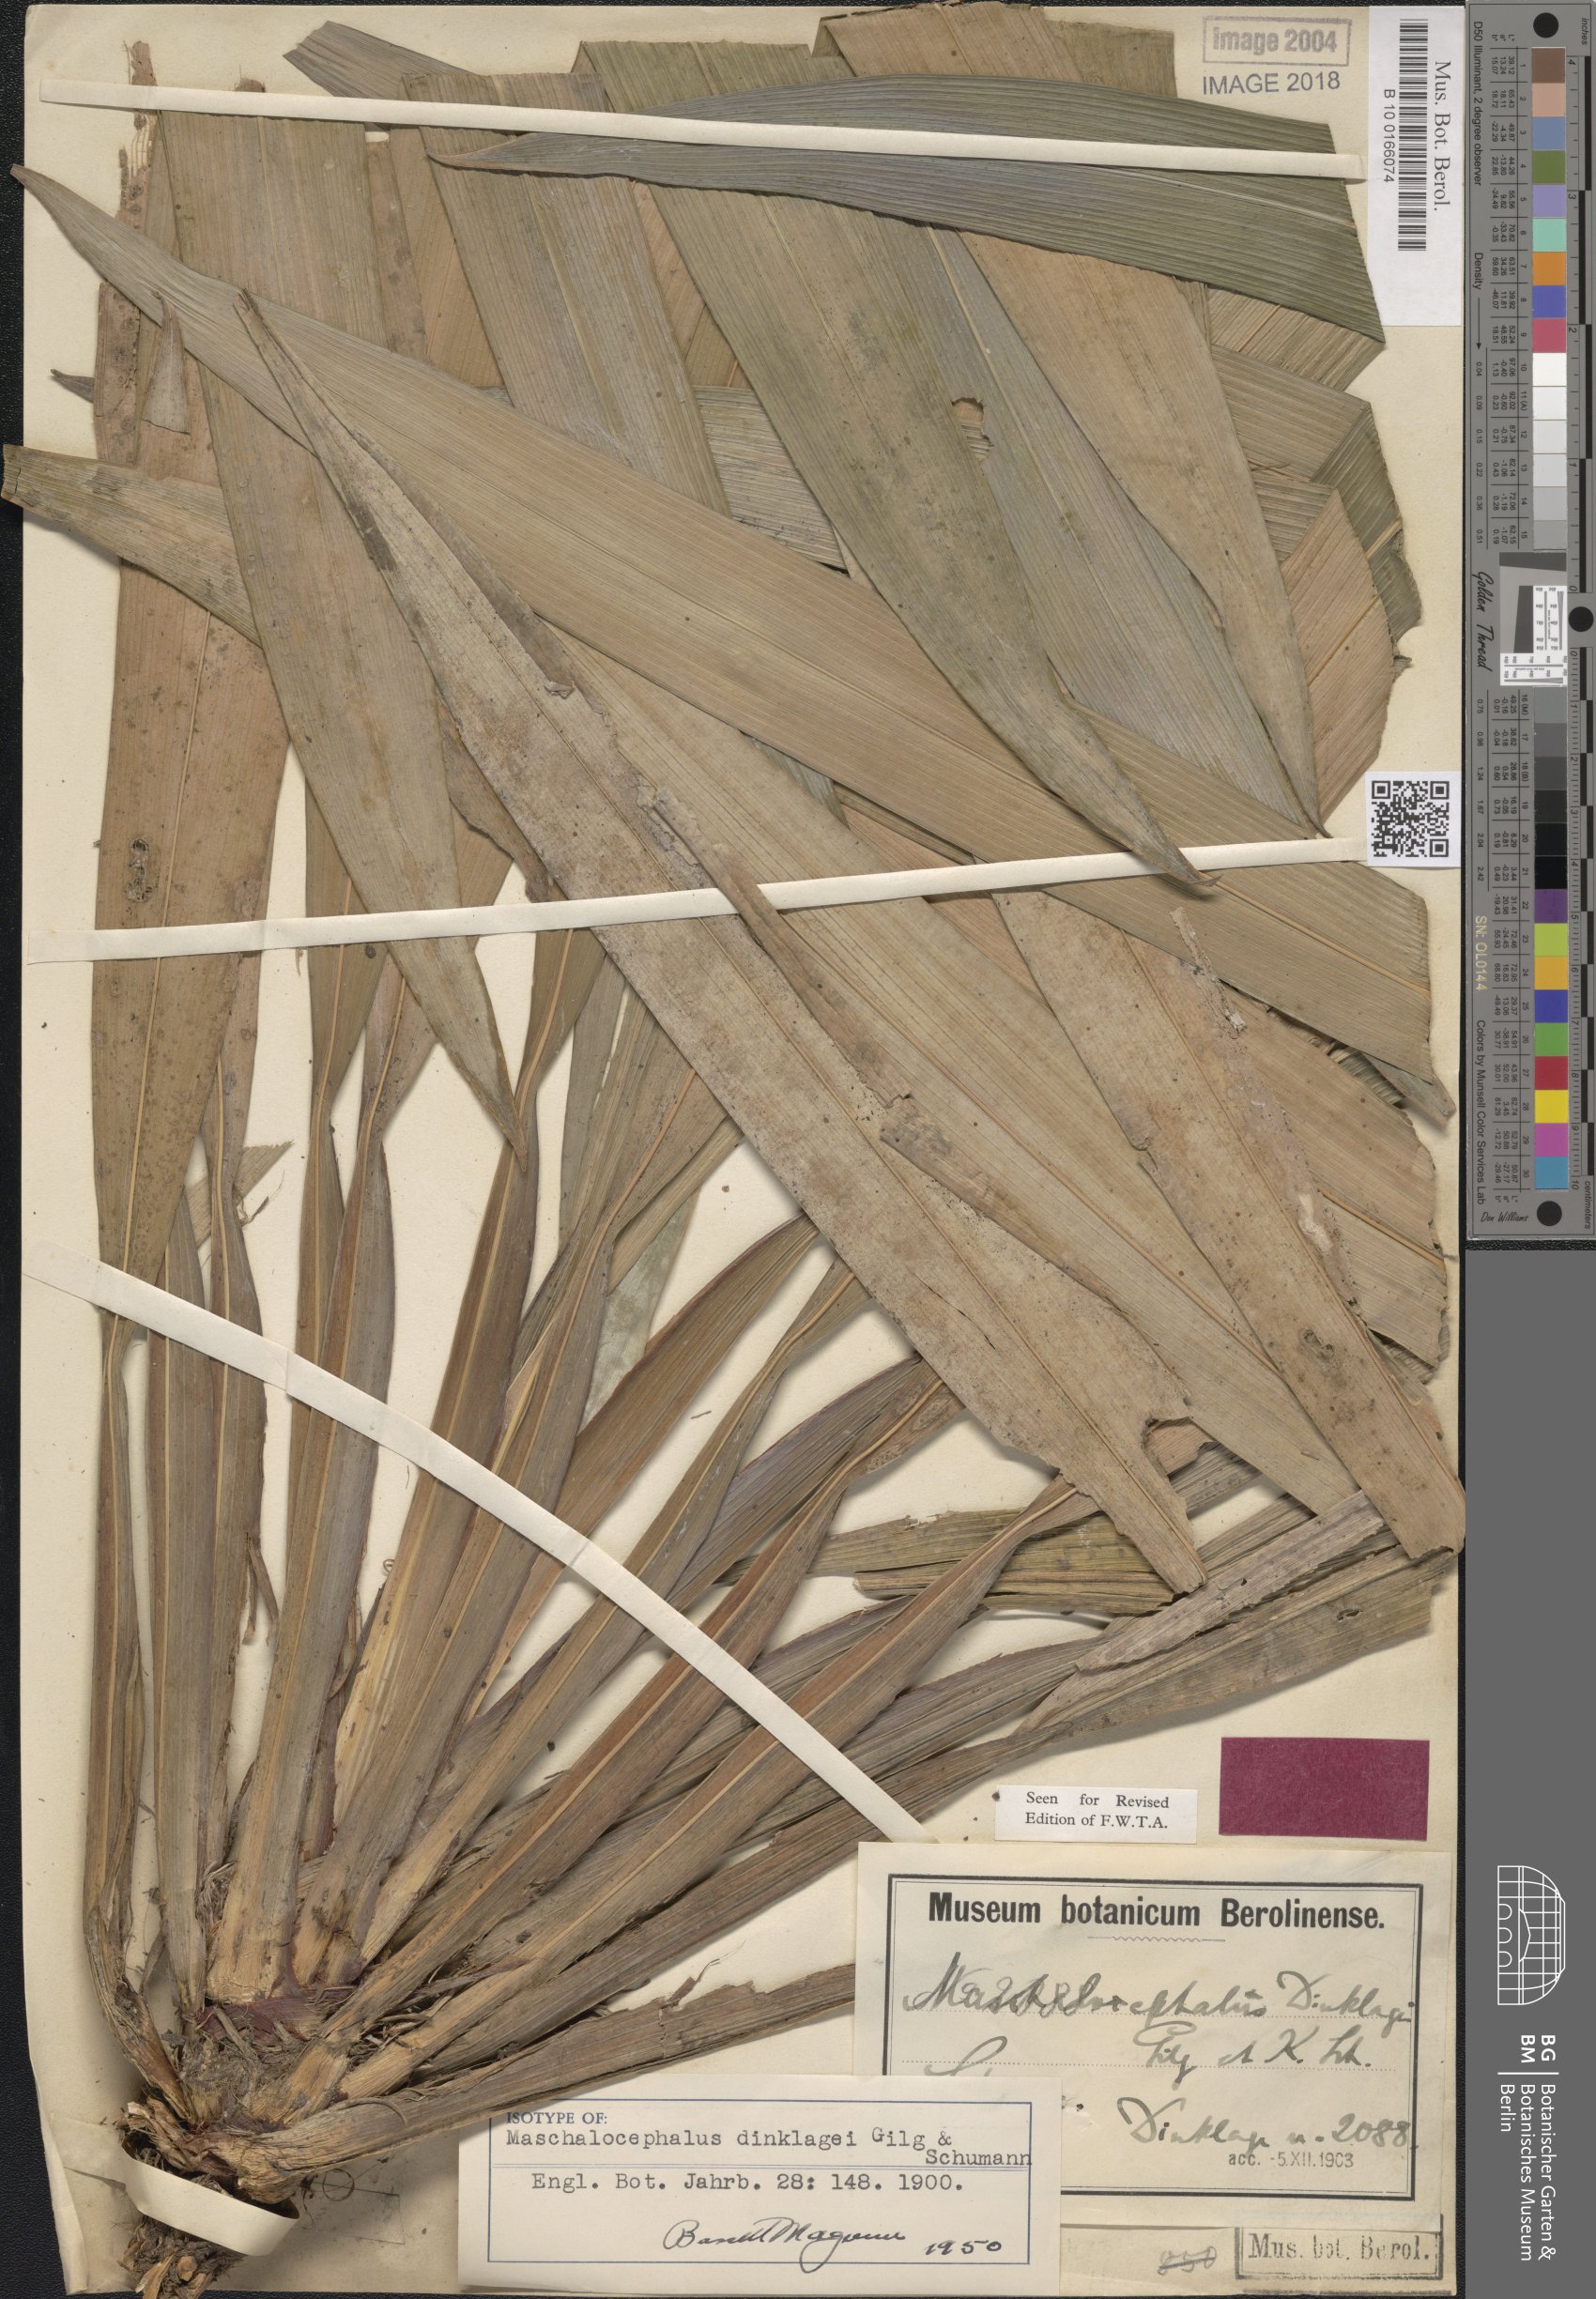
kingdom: Plantae
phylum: Tracheophyta
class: Liliopsida
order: Poales
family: Rapateaceae
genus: Maschalocephalus
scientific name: Maschalocephalus dinklagei
